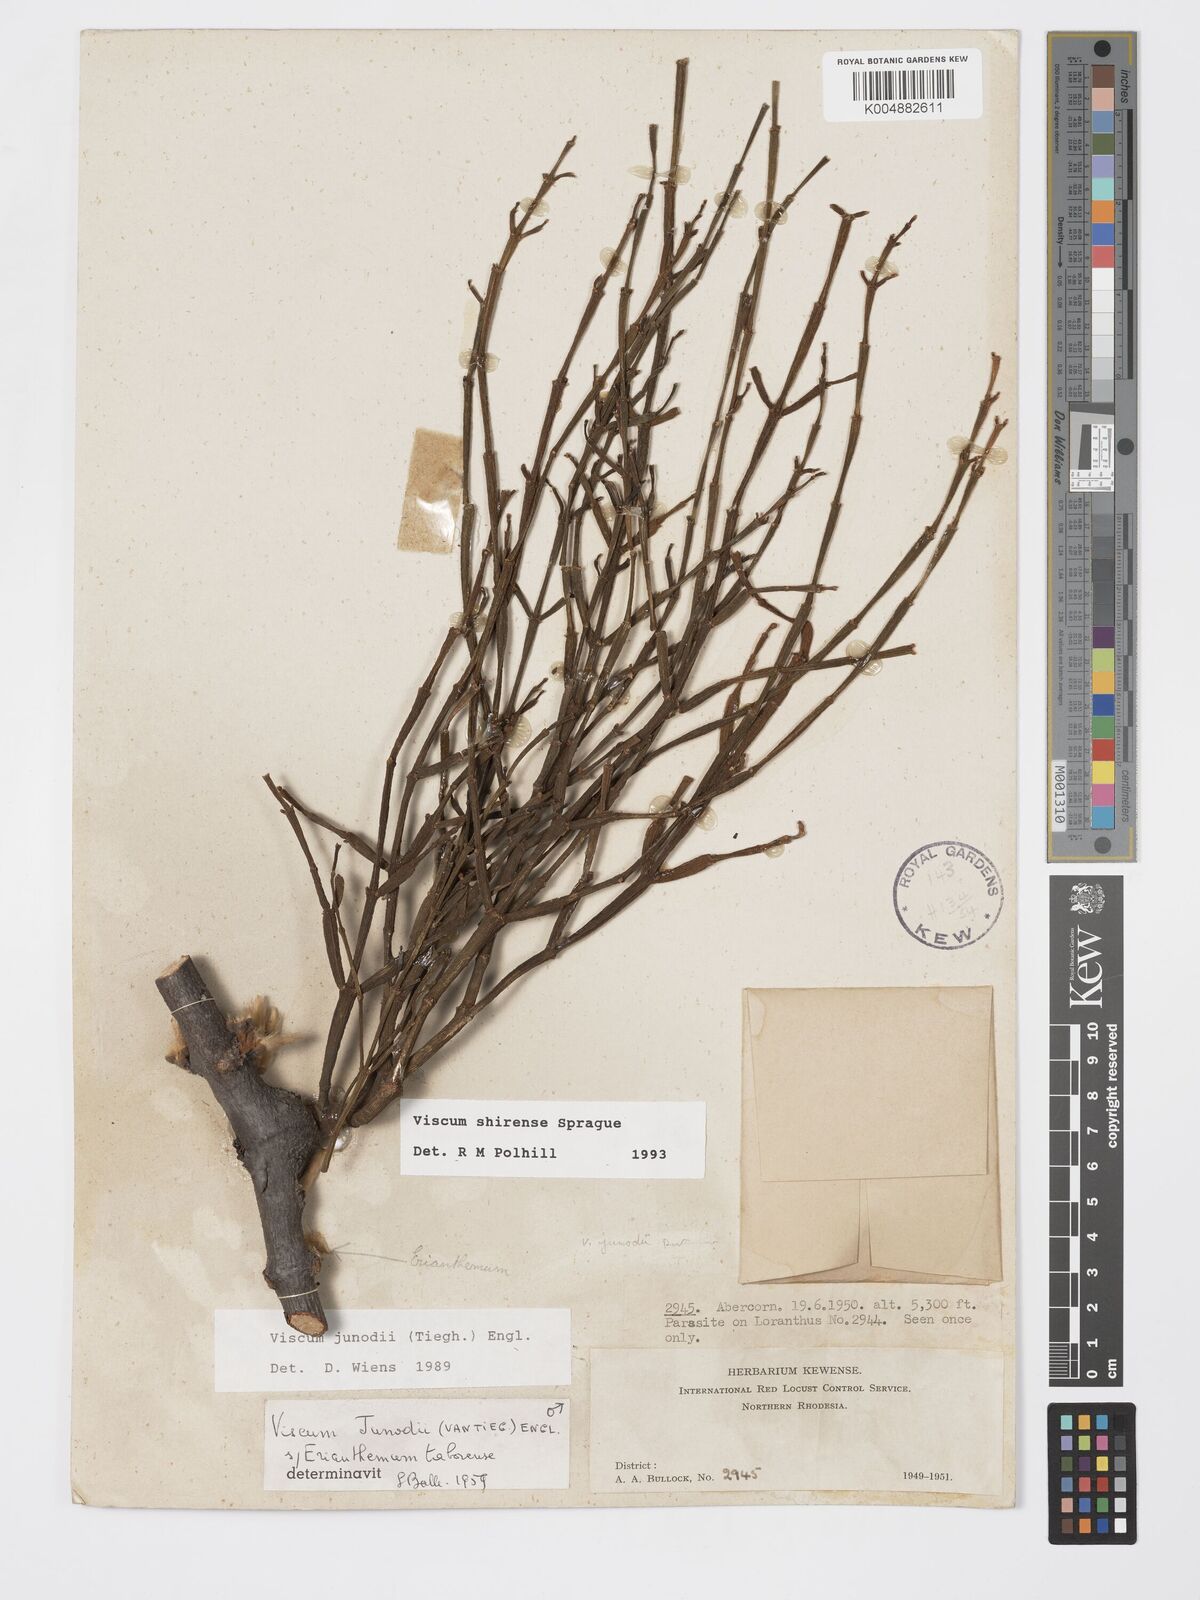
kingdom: Plantae
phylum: Tracheophyta
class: Magnoliopsida
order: Santalales
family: Viscaceae
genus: Viscum
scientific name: Viscum junodii
